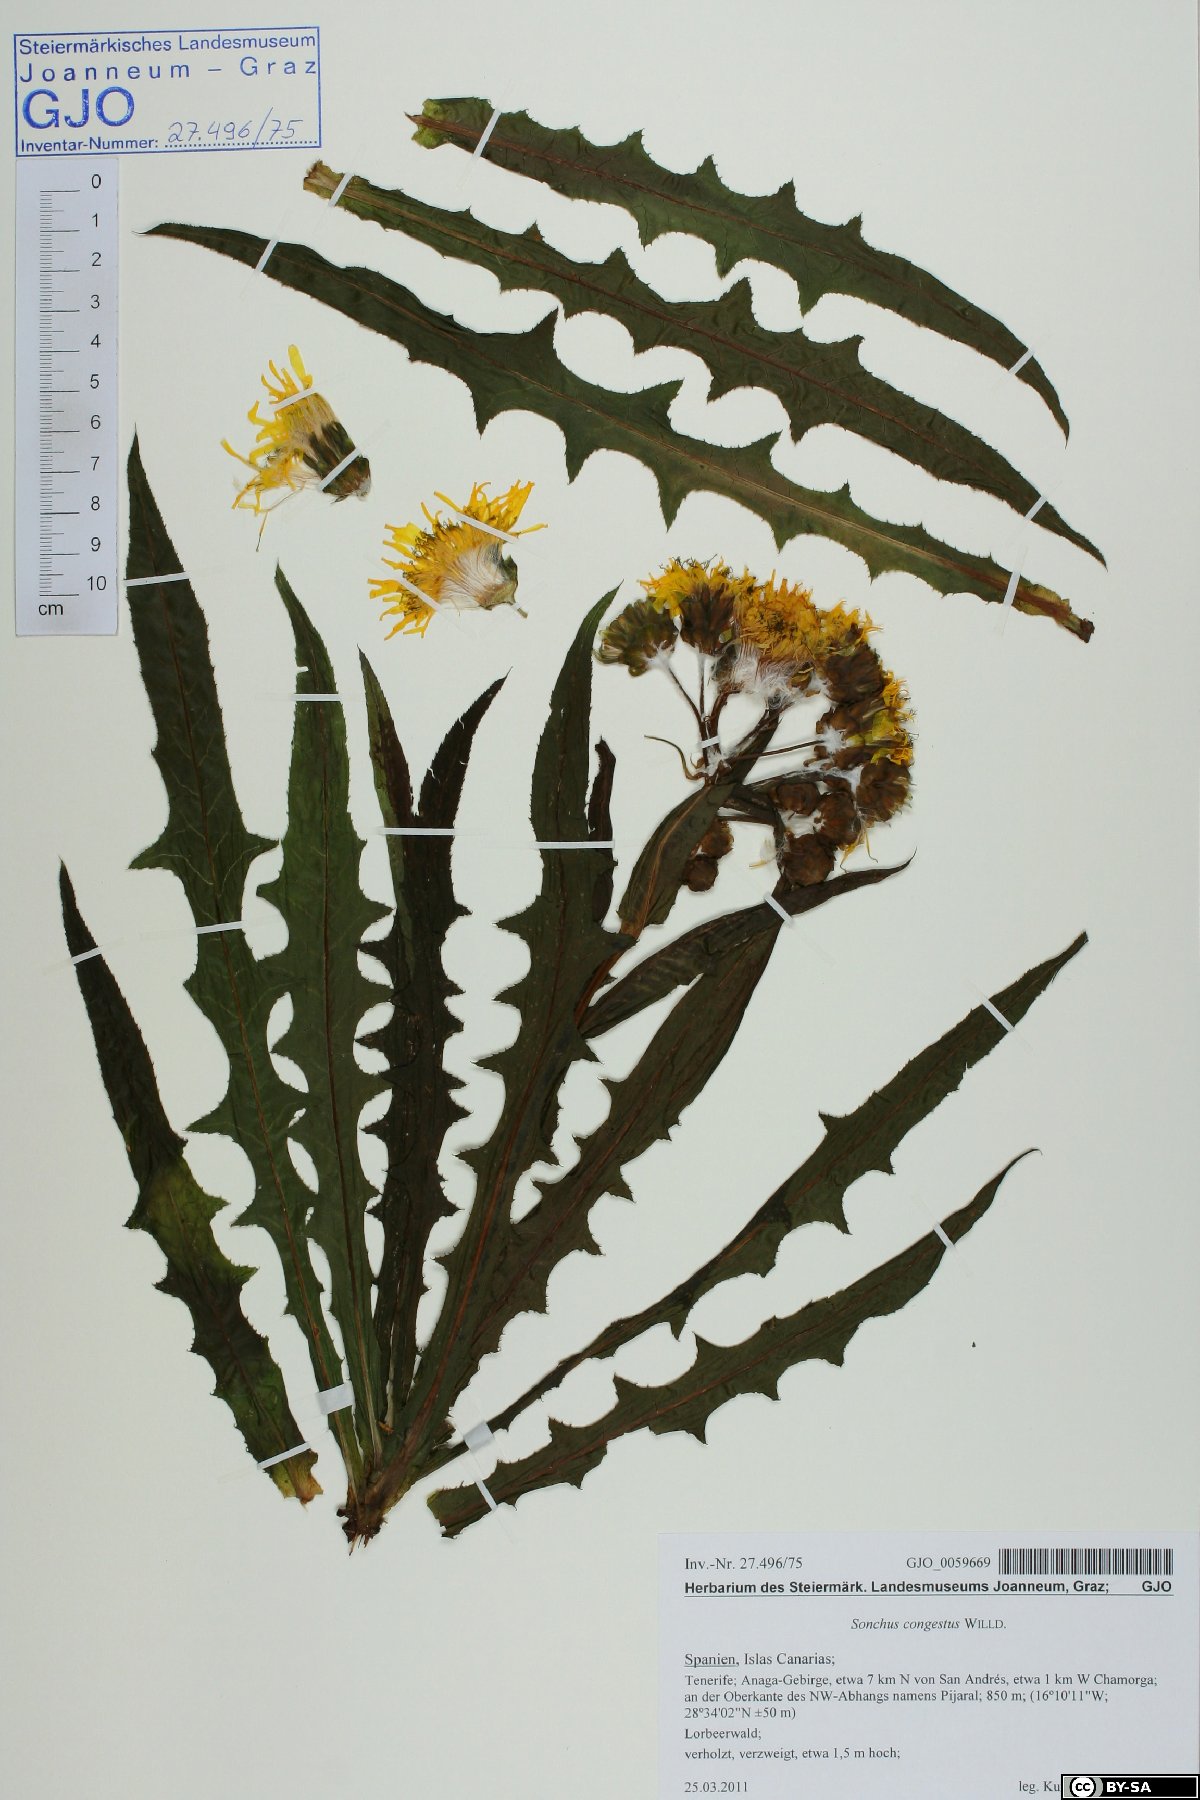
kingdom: Plantae
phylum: Tracheophyta
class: Magnoliopsida
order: Asterales
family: Asteraceae
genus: Sonchus
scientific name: Sonchus congestus
